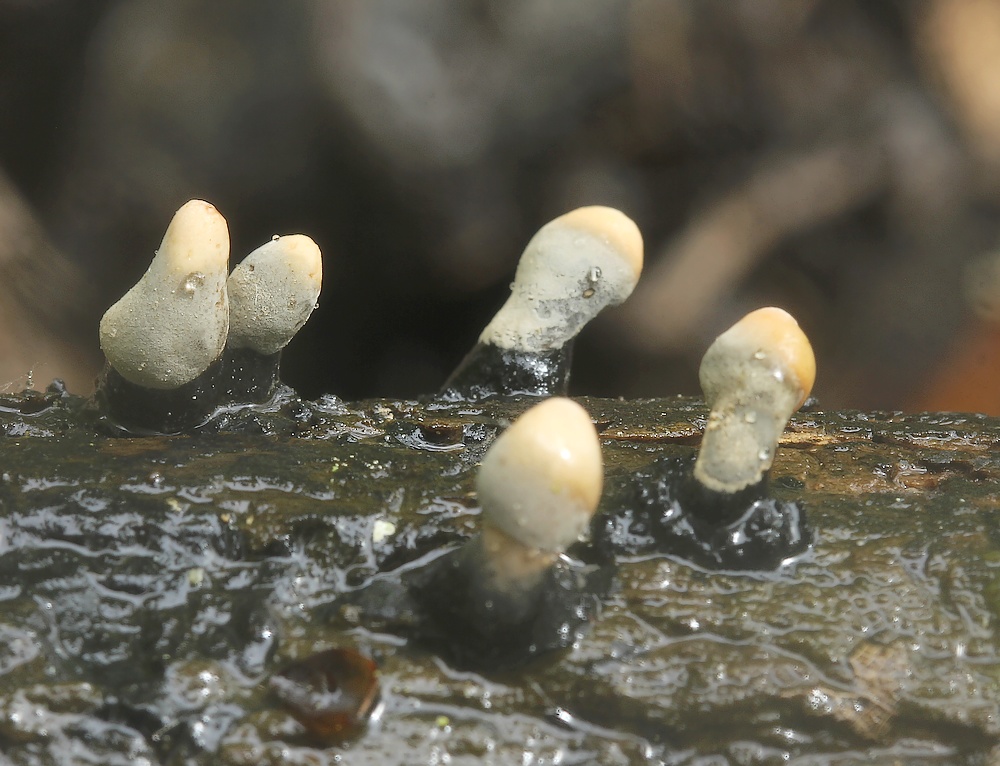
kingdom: Fungi
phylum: Ascomycota
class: Sordariomycetes
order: Xylariales
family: Xylariaceae
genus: Xylaria
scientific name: Xylaria
